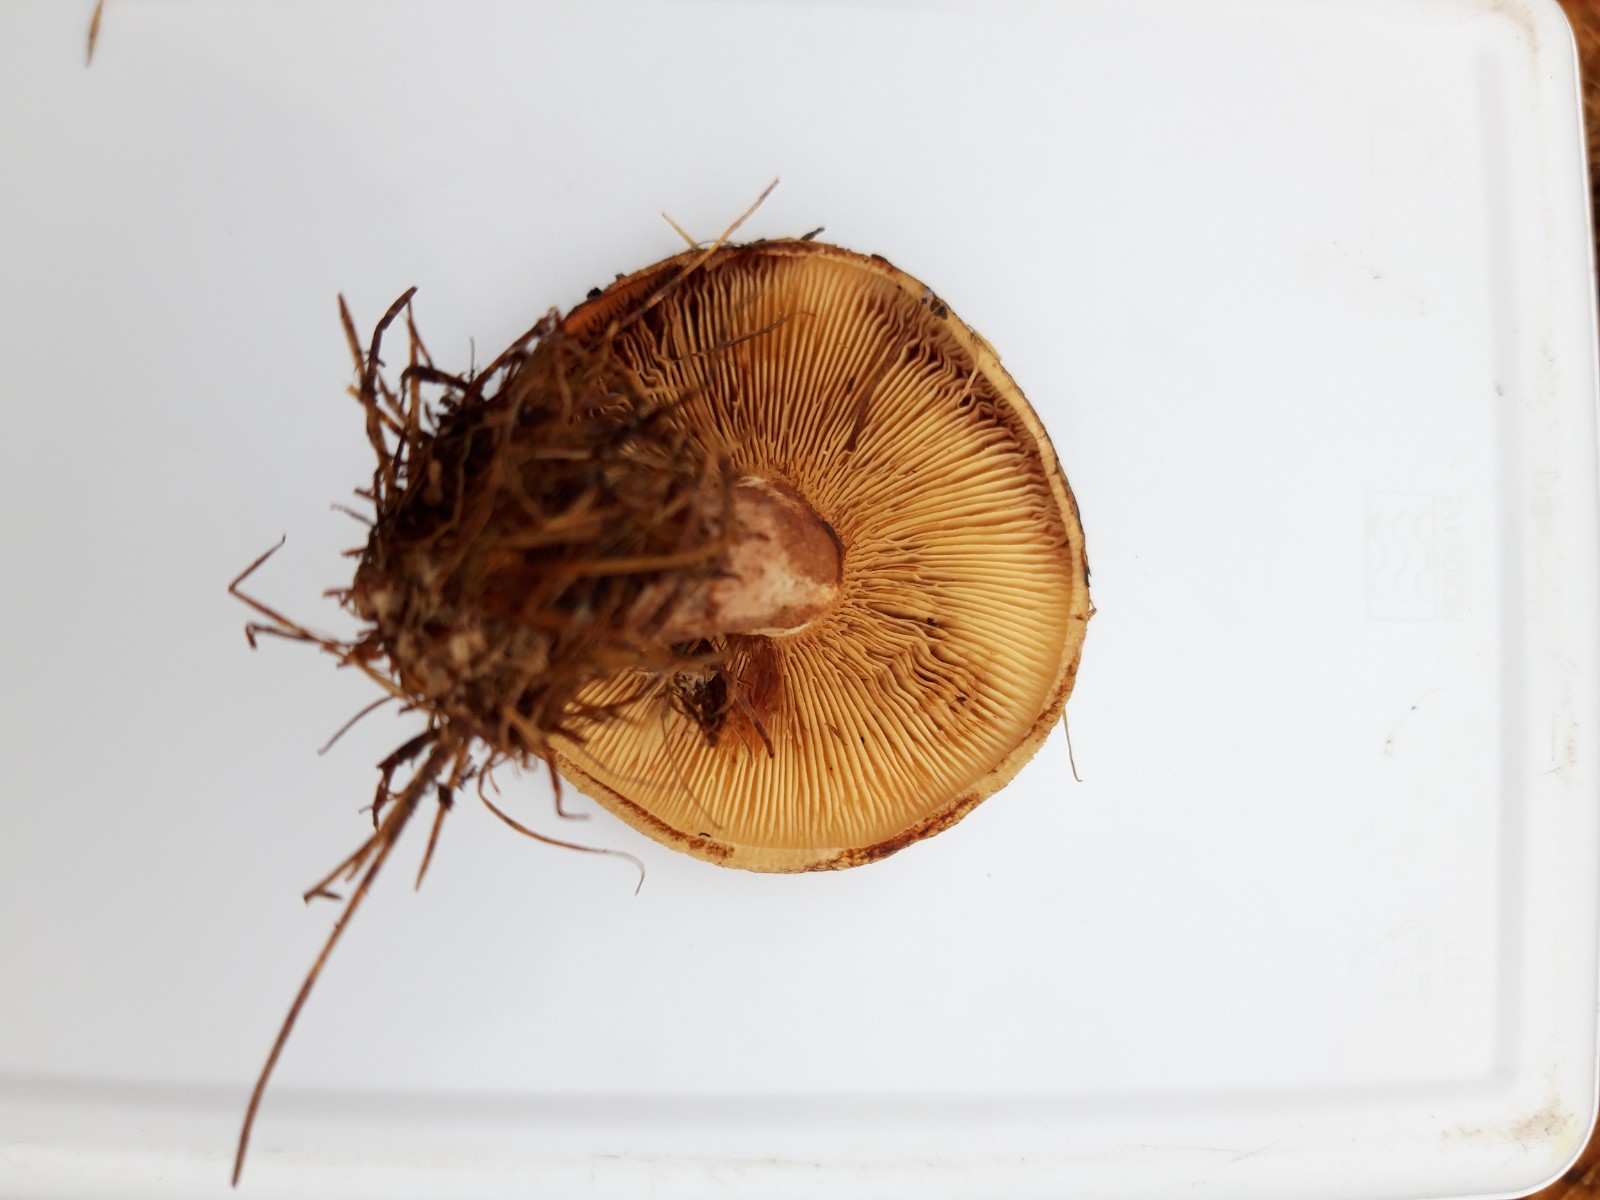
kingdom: Fungi
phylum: Basidiomycota
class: Agaricomycetes
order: Boletales
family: Paxillaceae
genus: Paxillus
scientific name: Paxillus involutus
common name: almindelig netbladhat
